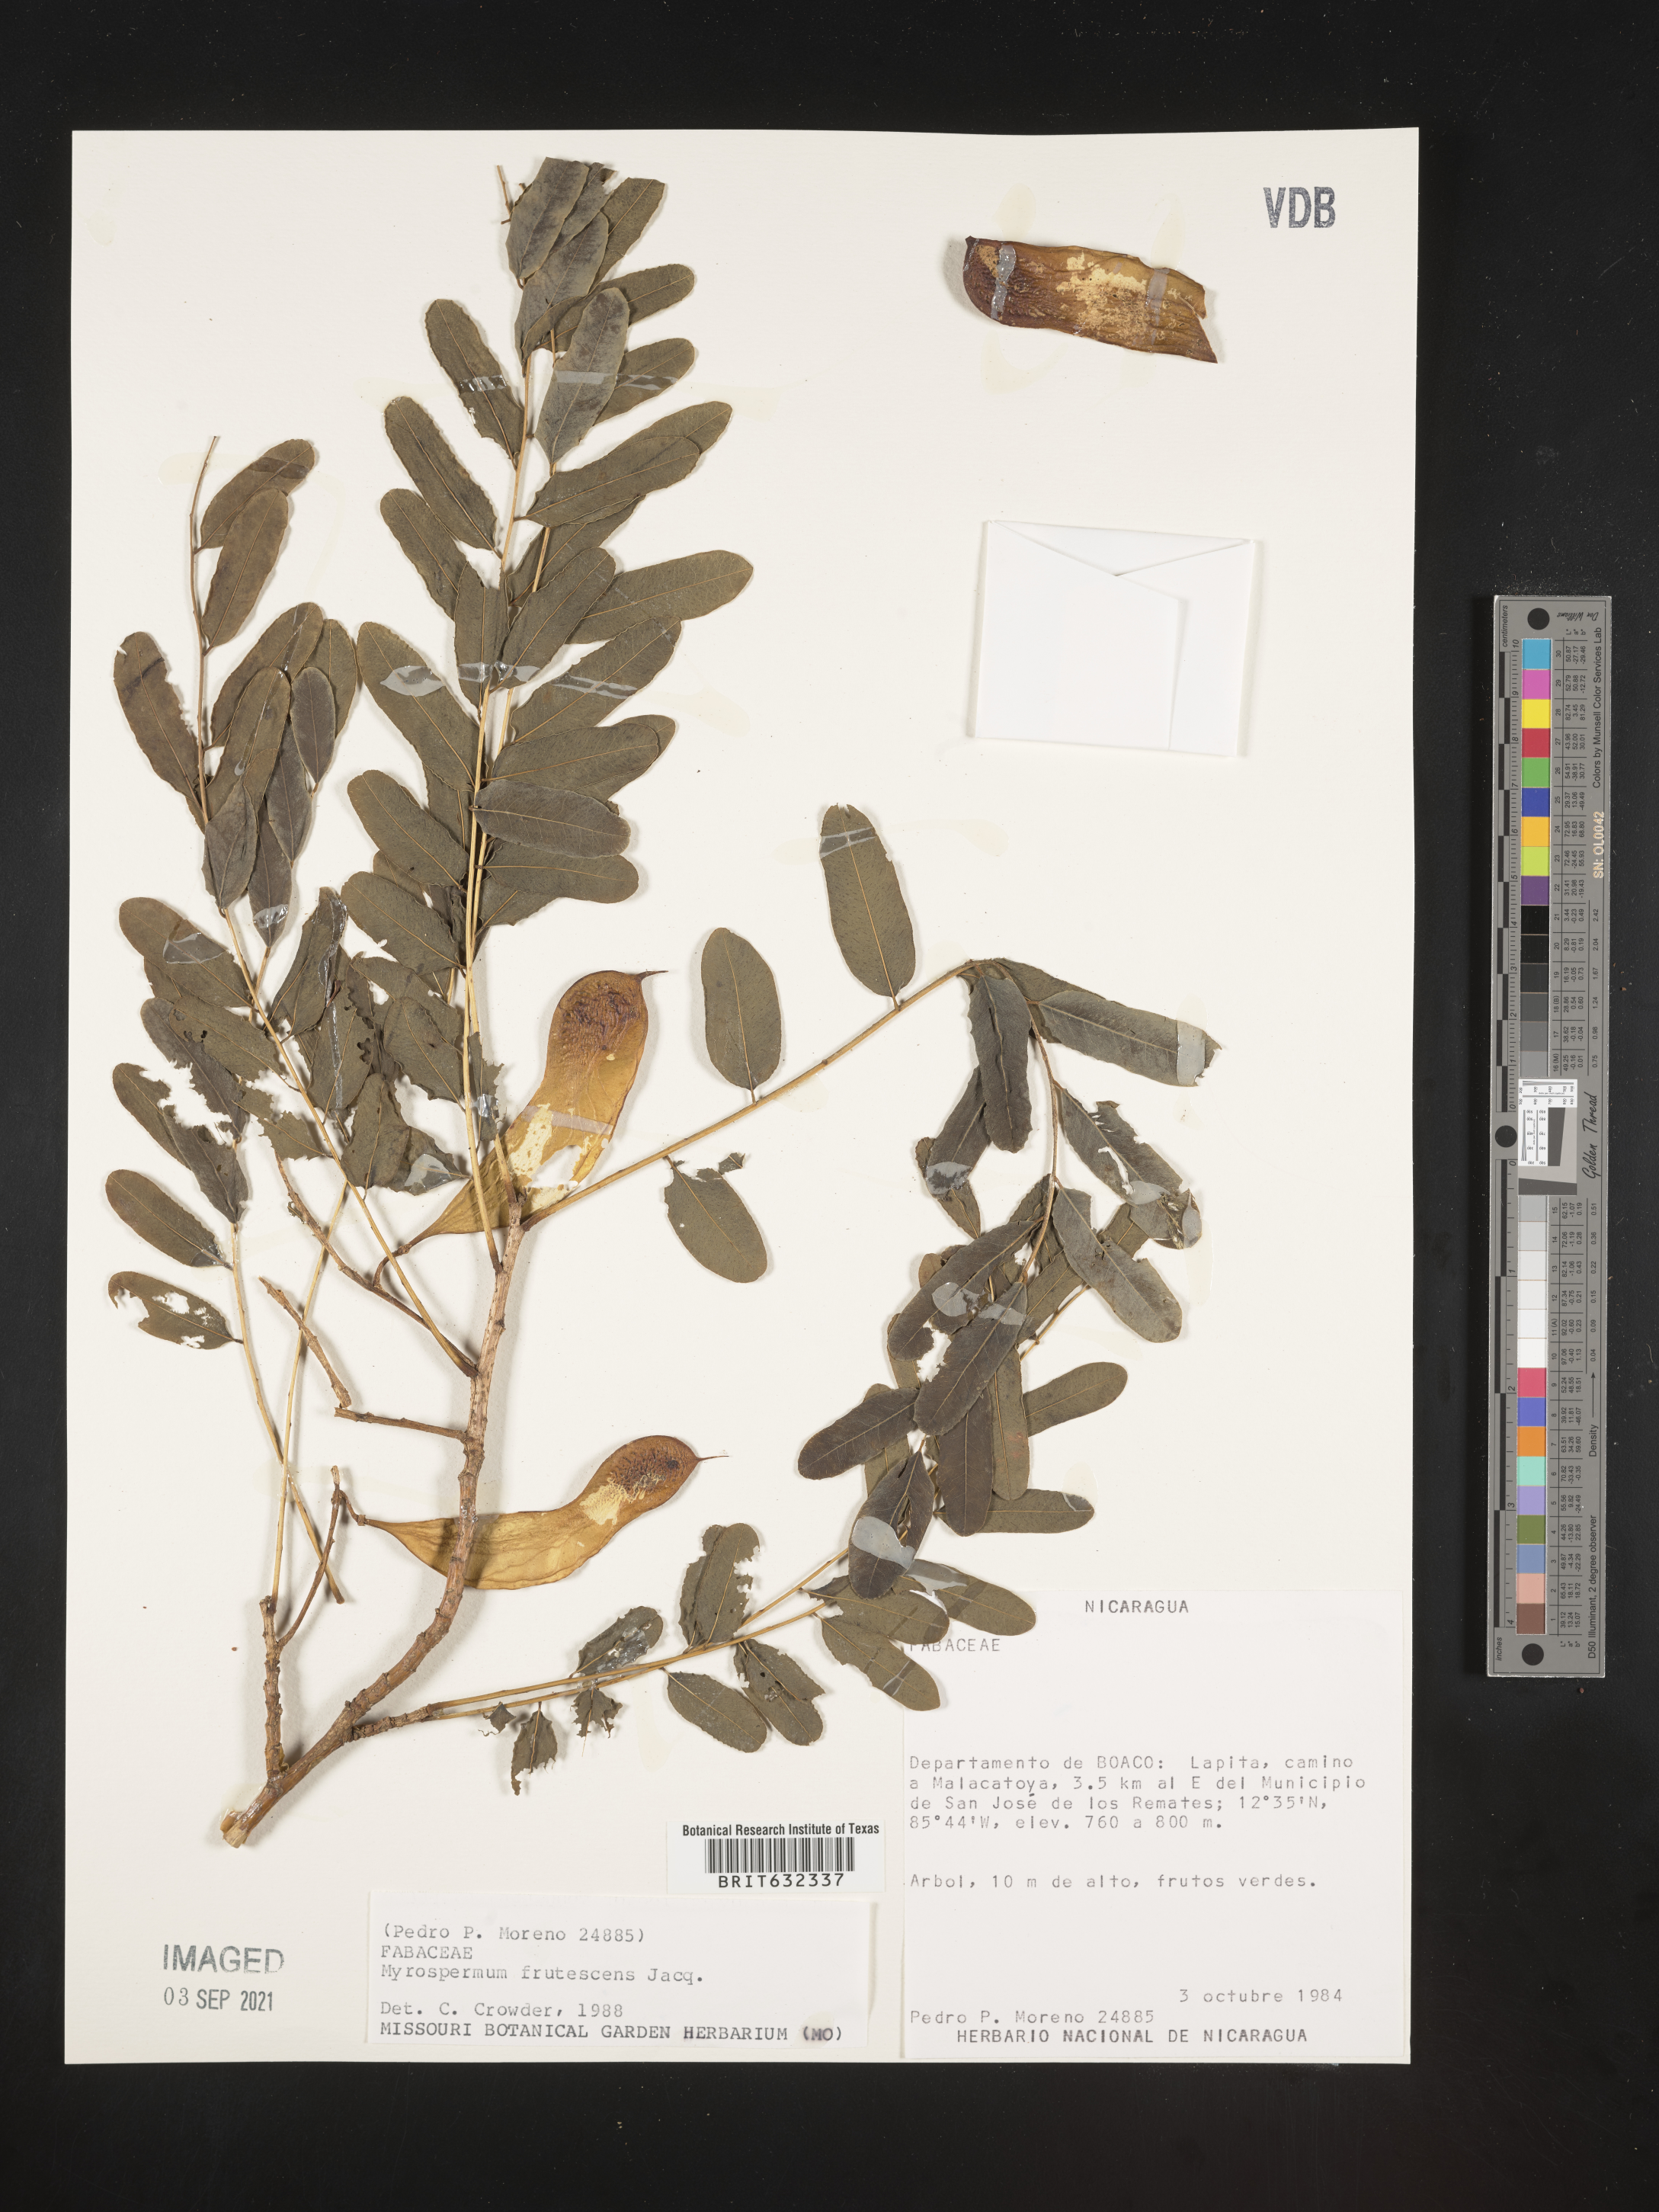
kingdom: Plantae
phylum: Tracheophyta
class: Magnoliopsida
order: Fabales
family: Fabaceae
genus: Myrospermum
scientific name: Myrospermum
